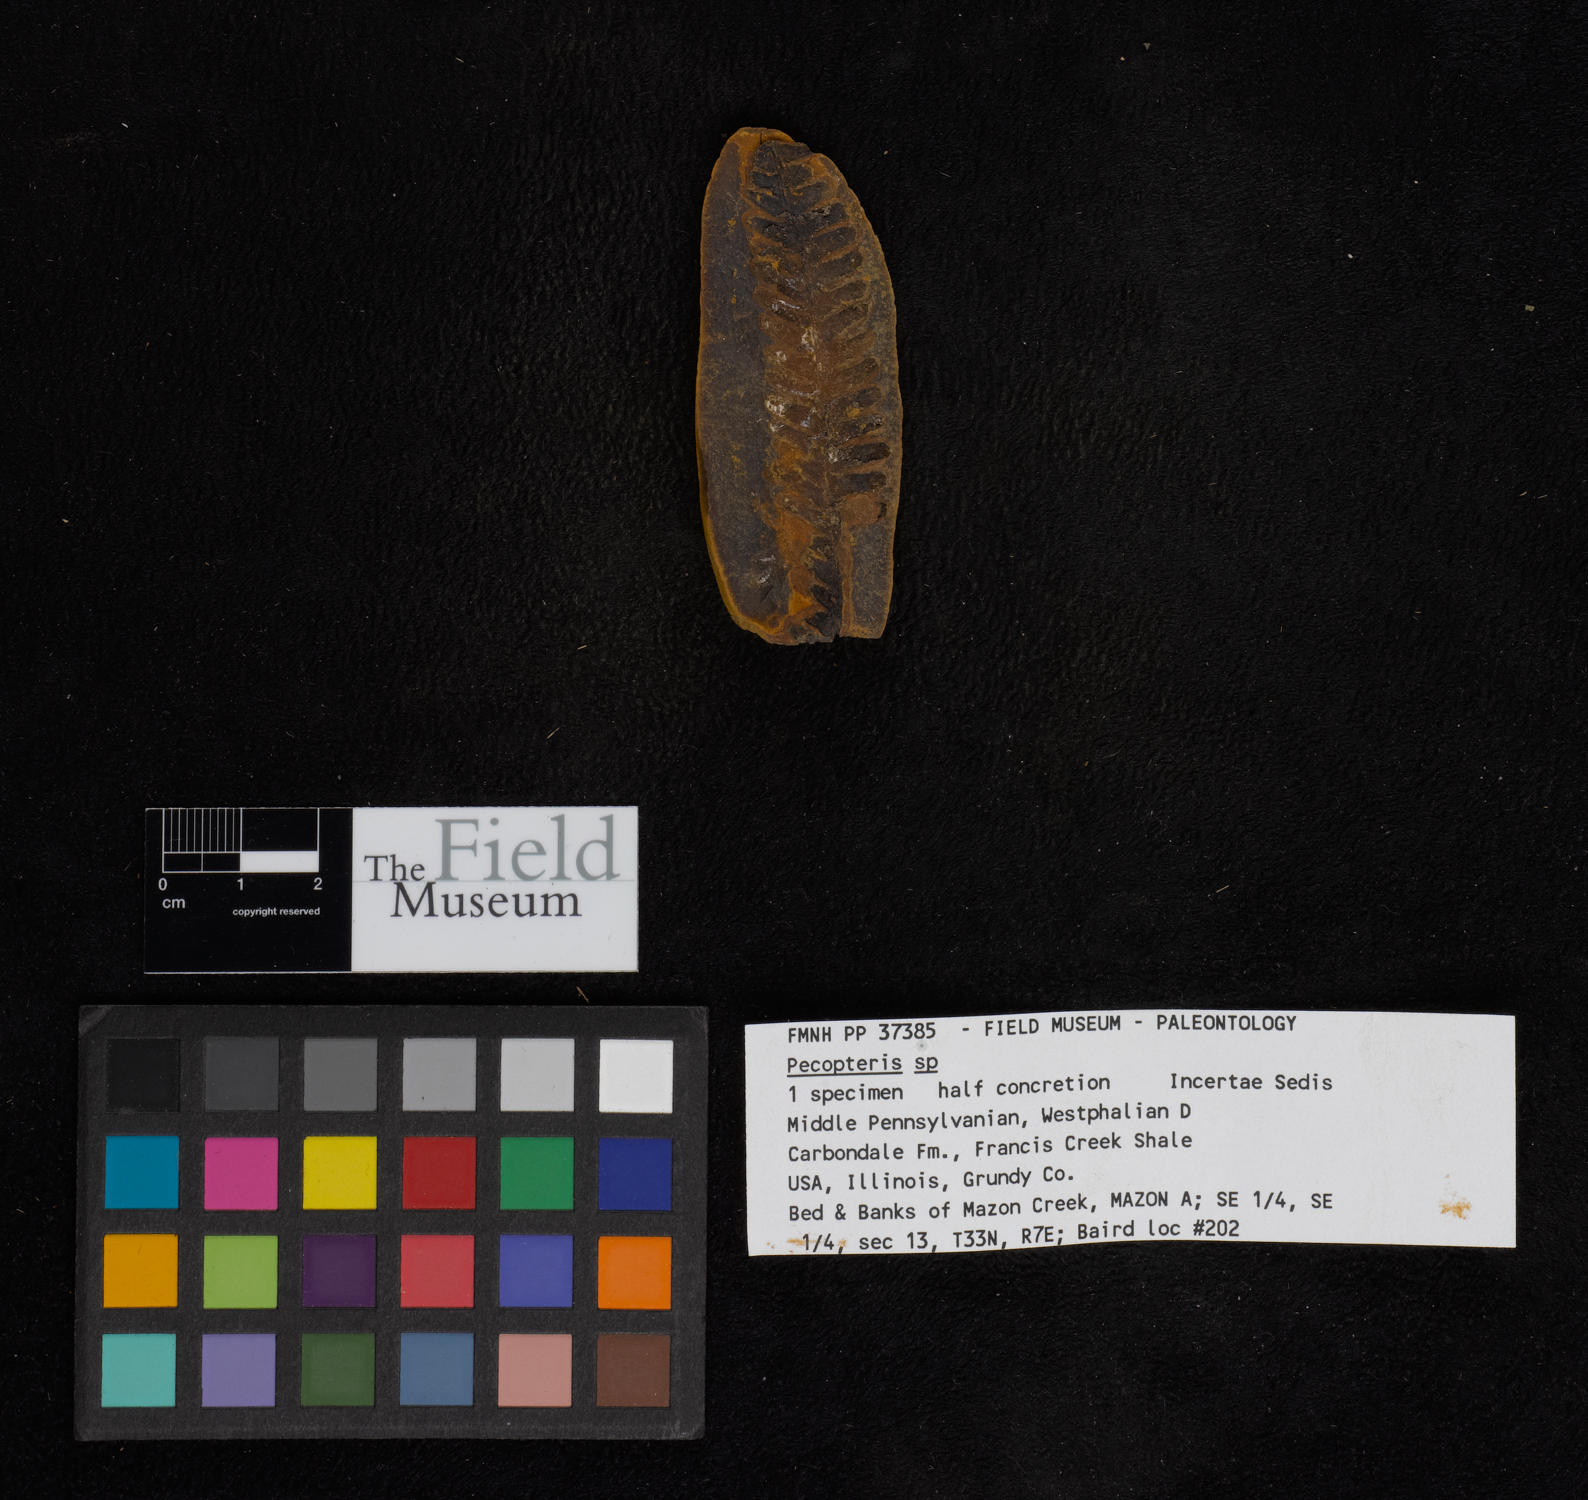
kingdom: Plantae
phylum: Tracheophyta
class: Polypodiopsida
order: Marattiales
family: Asterothecaceae
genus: Pecopteris
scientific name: Pecopteris
